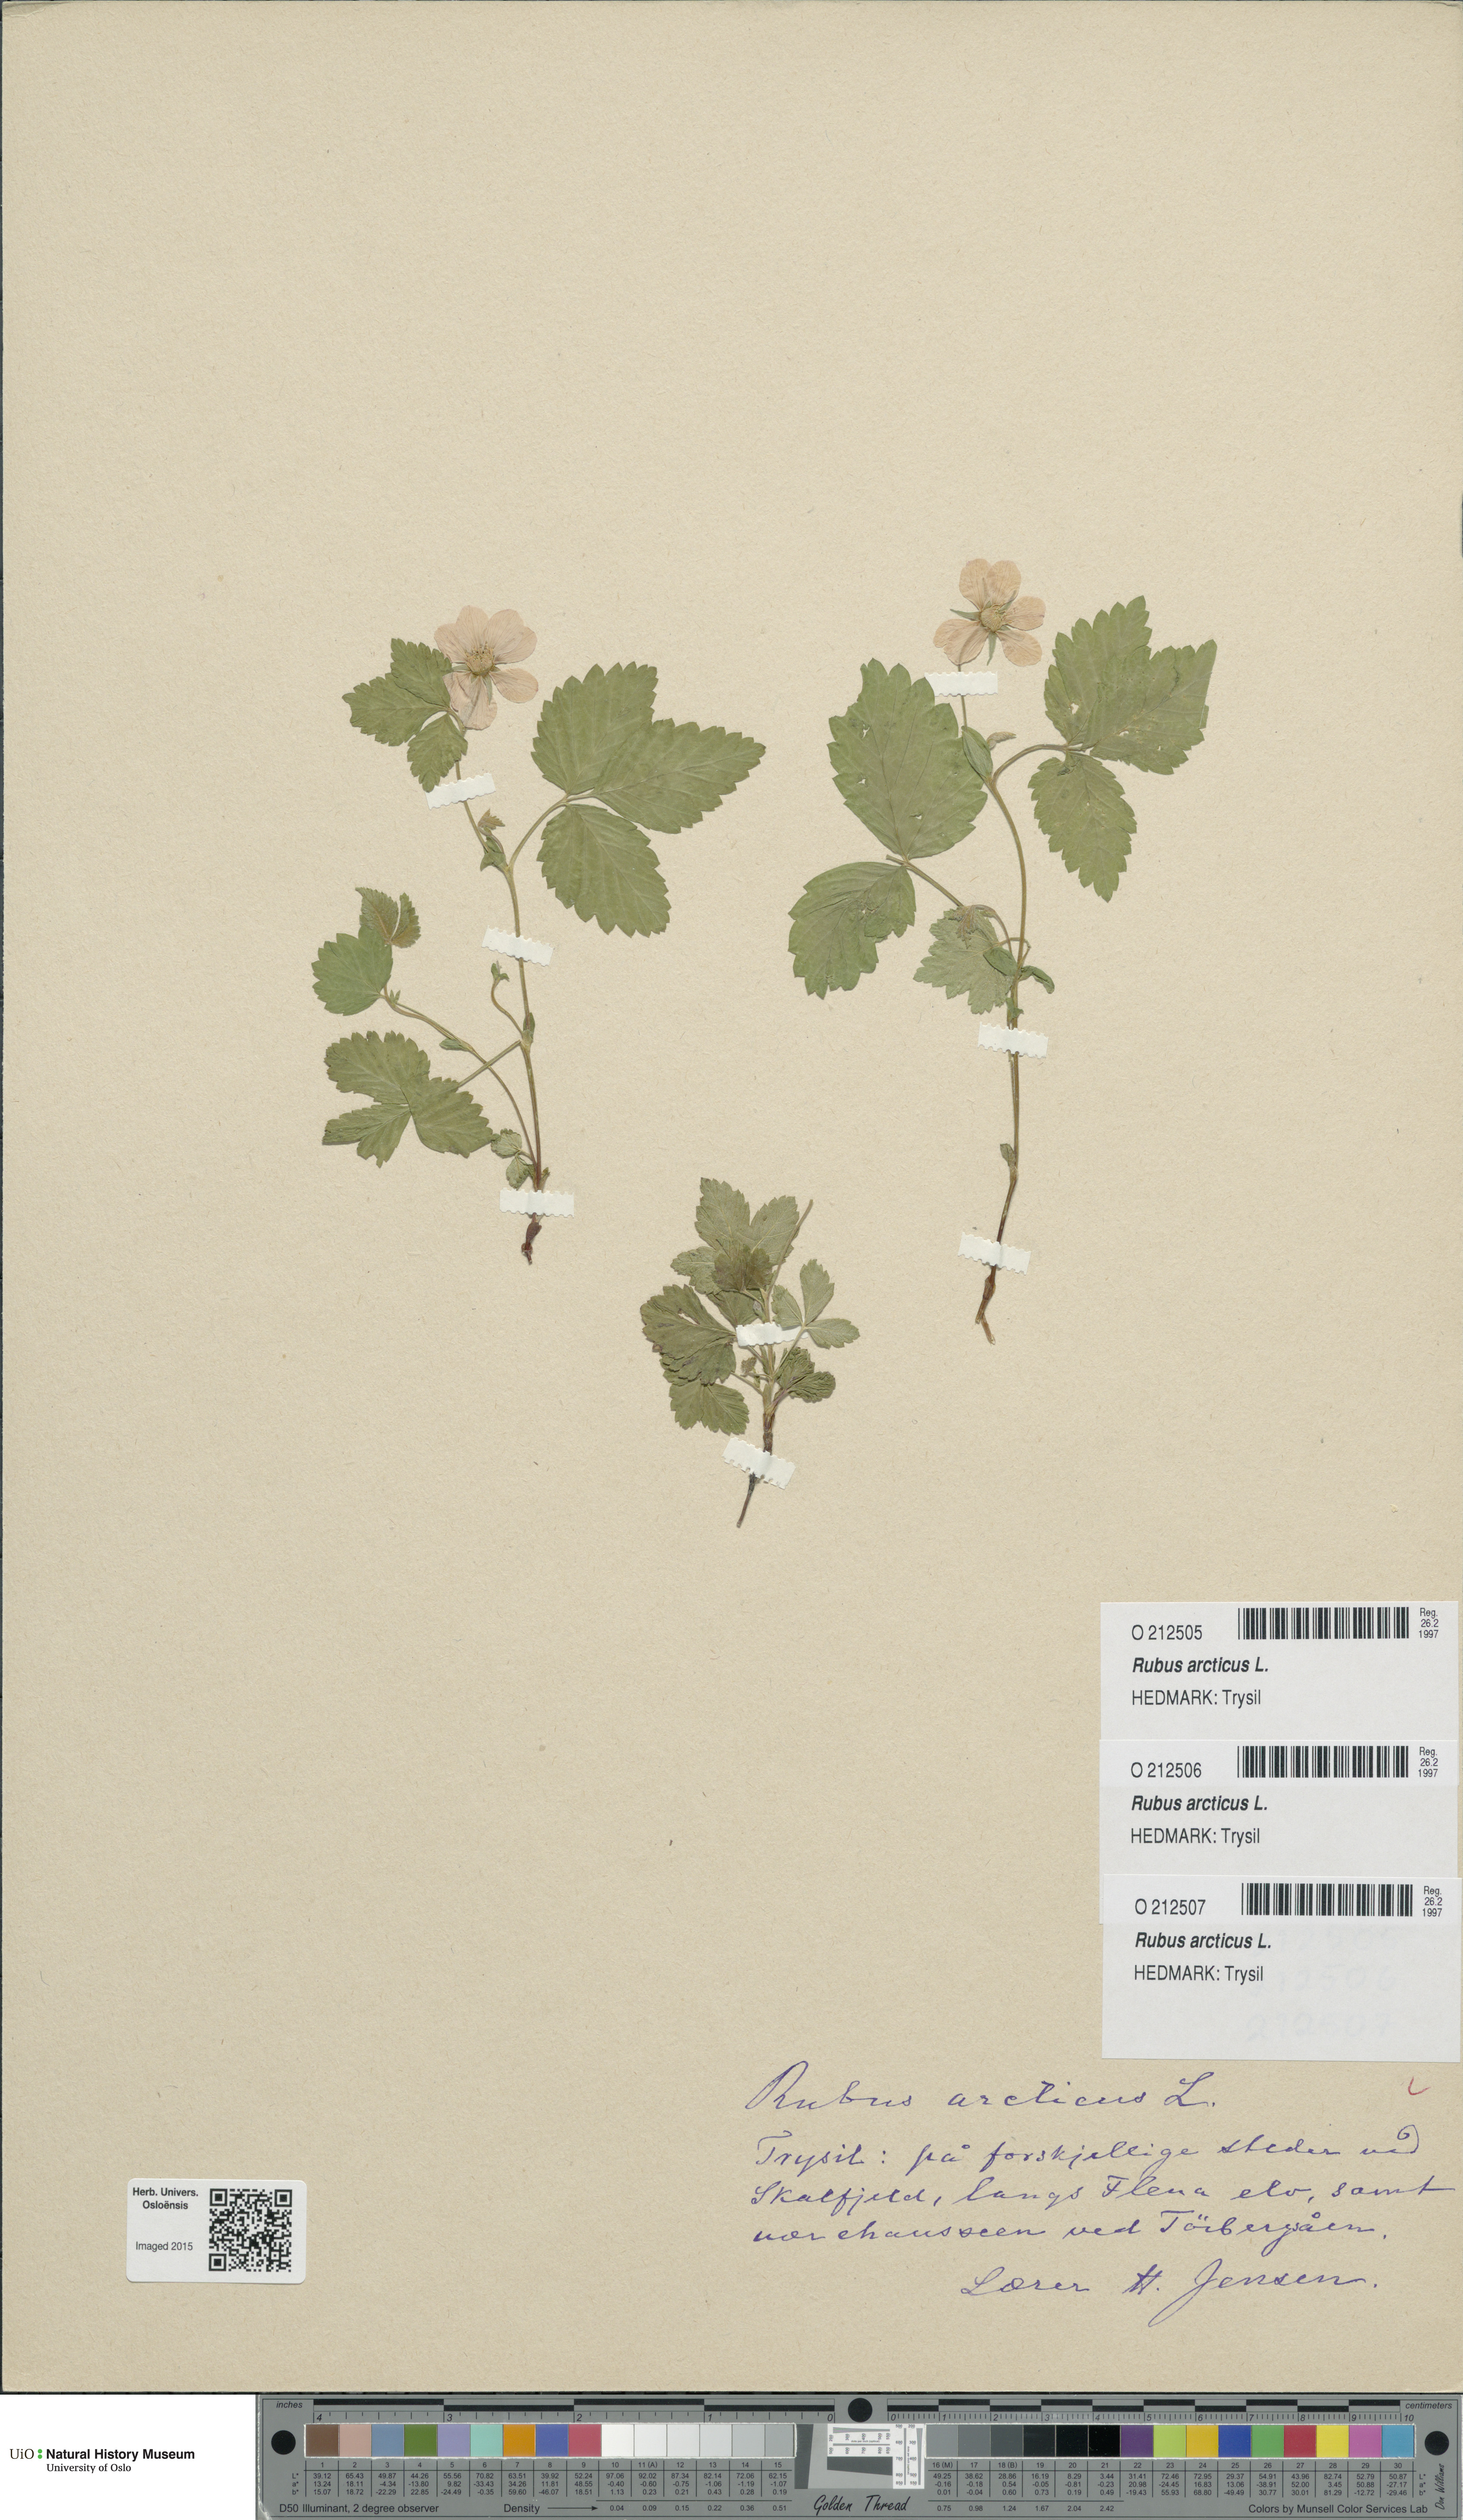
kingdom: Plantae
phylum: Tracheophyta
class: Magnoliopsida
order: Rosales
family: Rosaceae
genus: Rubus
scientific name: Rubus arcticus
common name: Arctic bramble
